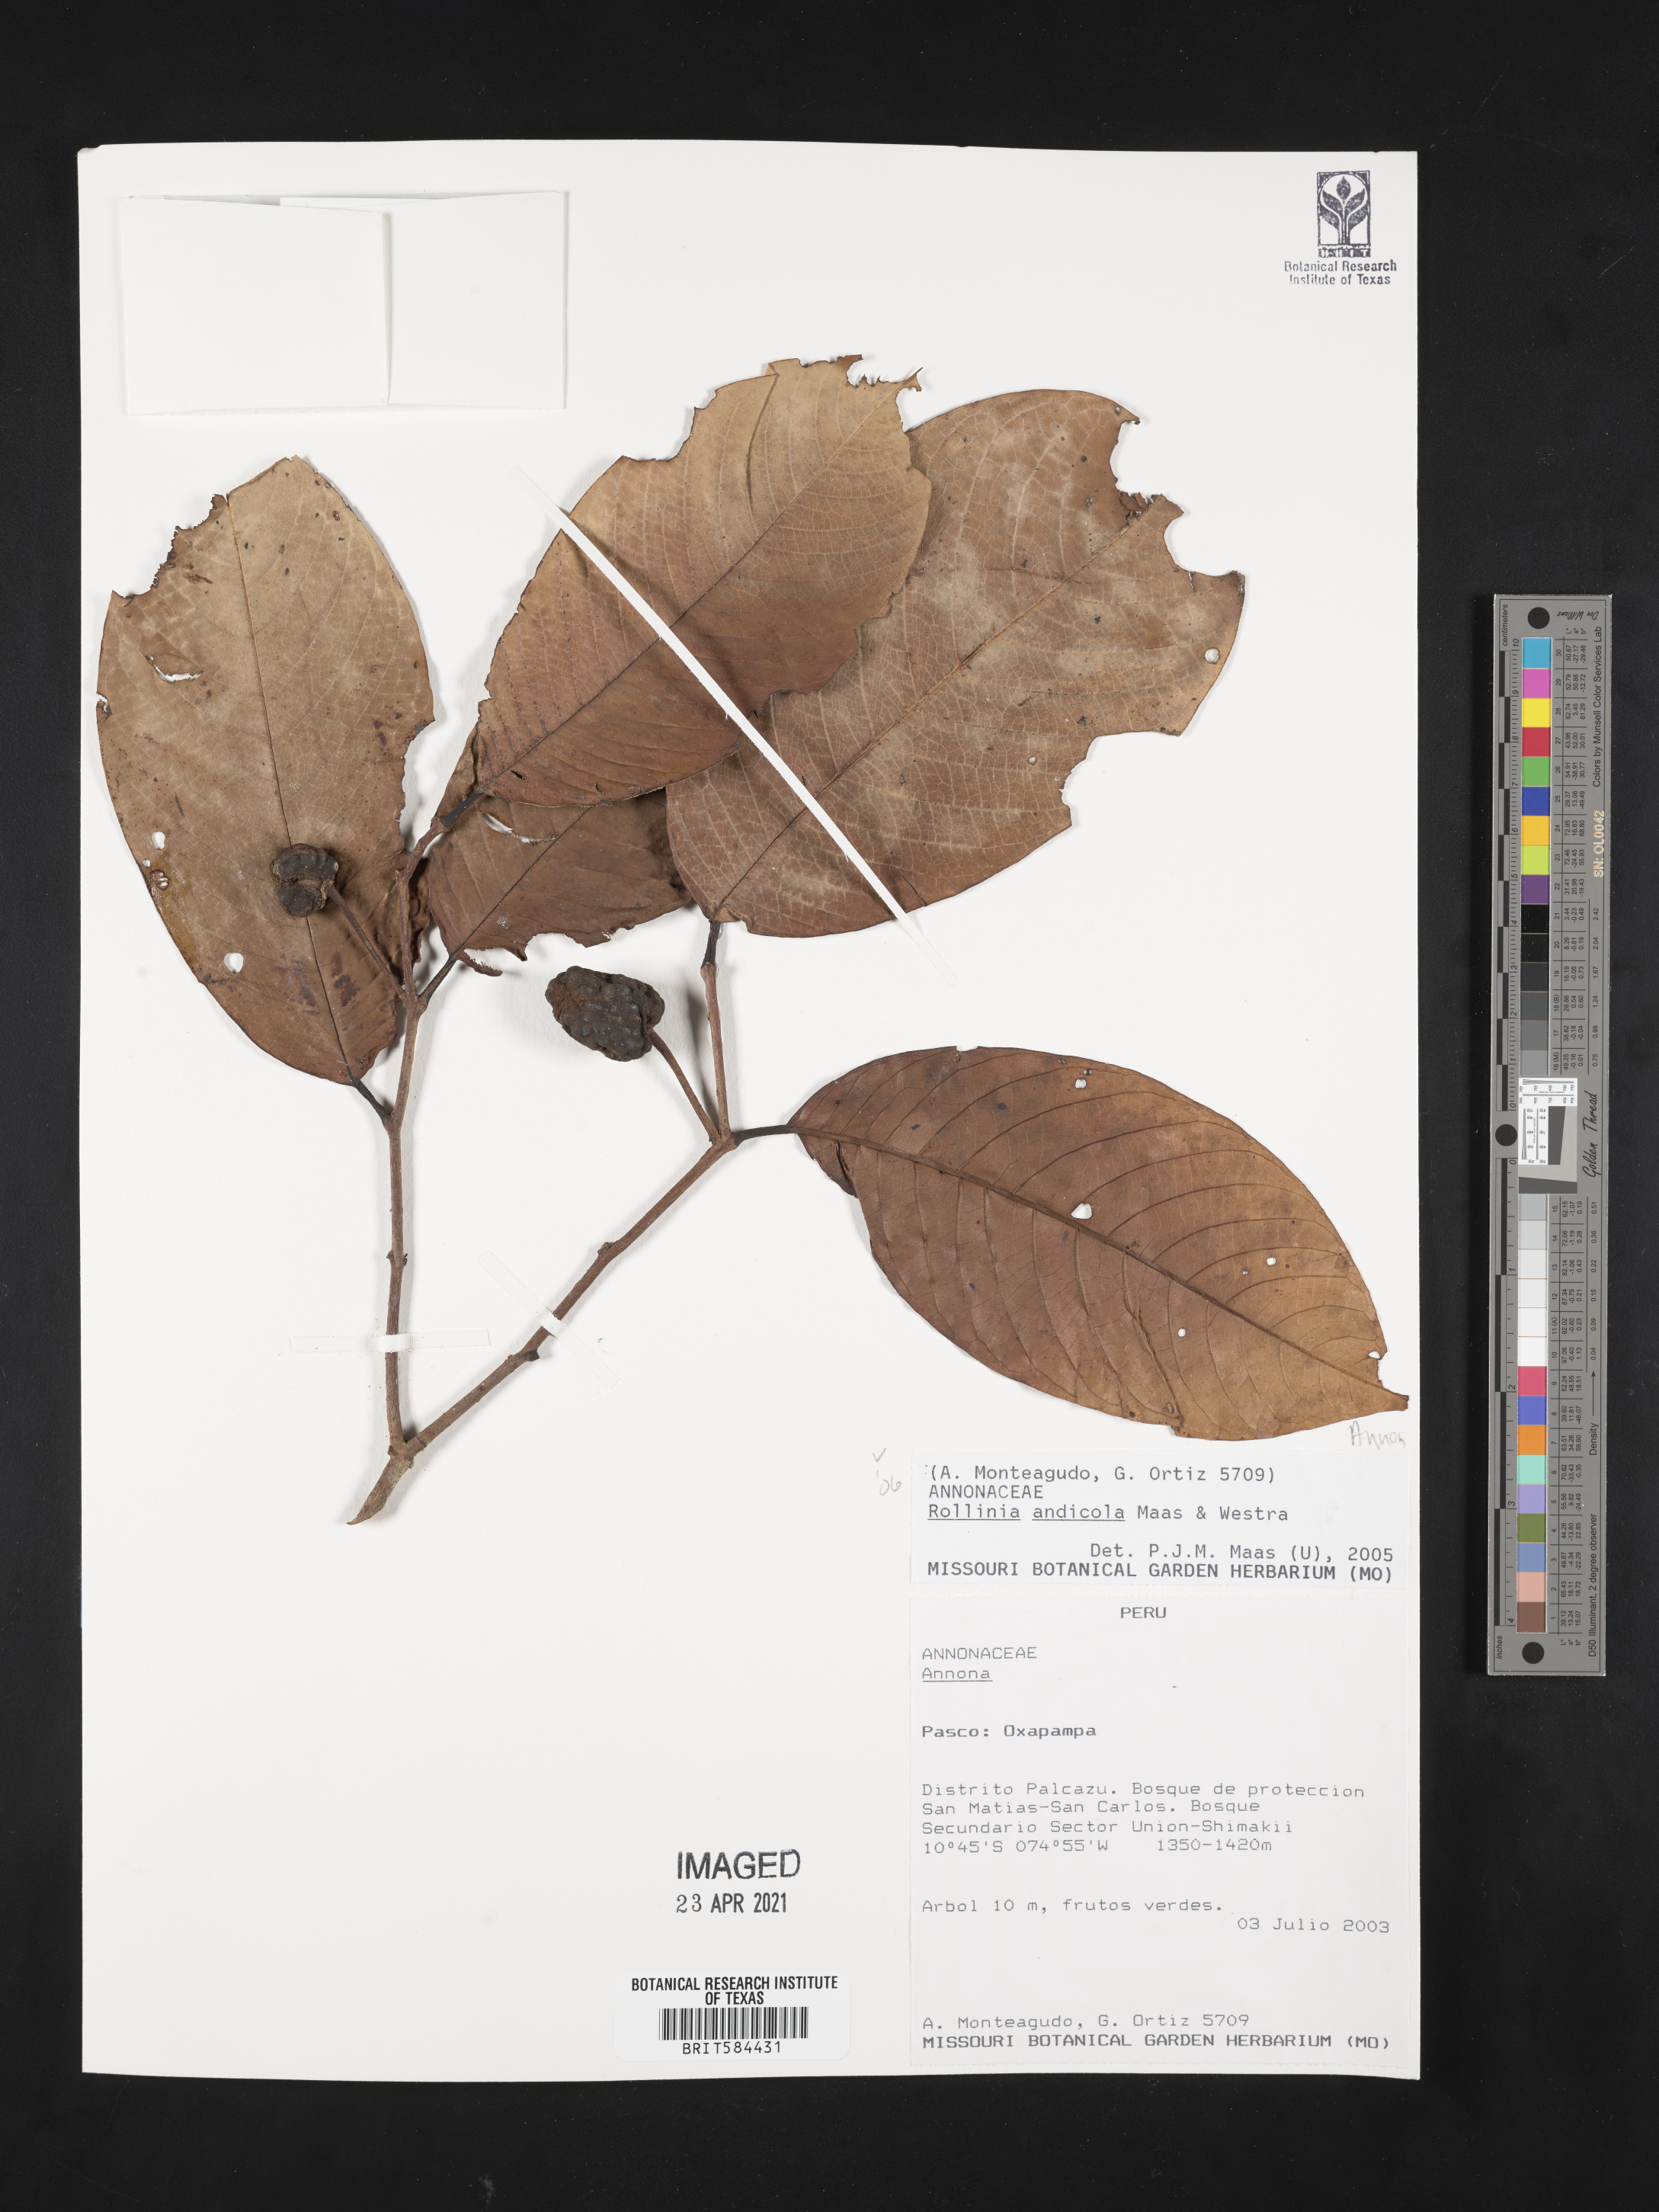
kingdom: Plantae
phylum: Tracheophyta
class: Magnoliopsida
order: Magnoliales
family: Annonaceae
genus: Annona
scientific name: Annona andicola
